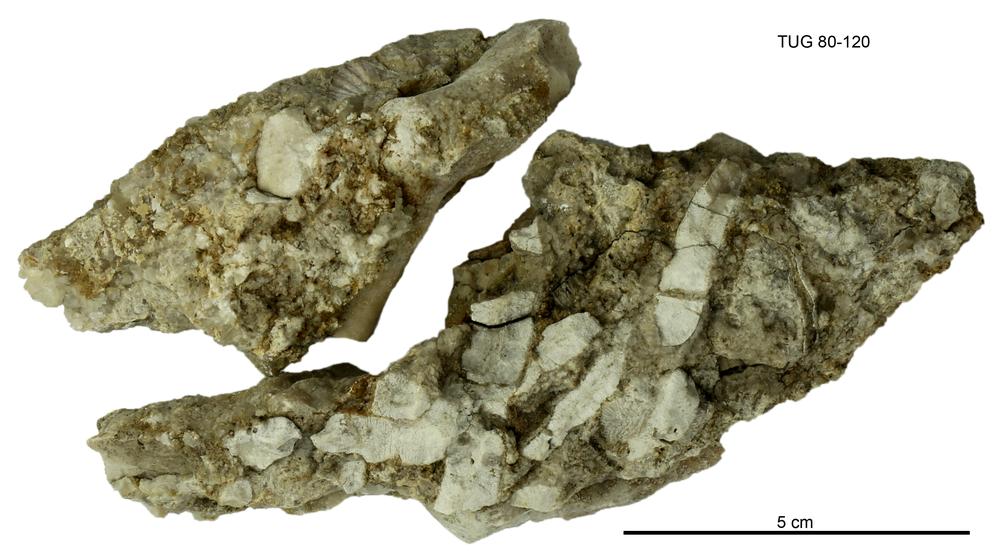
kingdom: Animalia
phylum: Bryozoa
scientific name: Bryozoa
